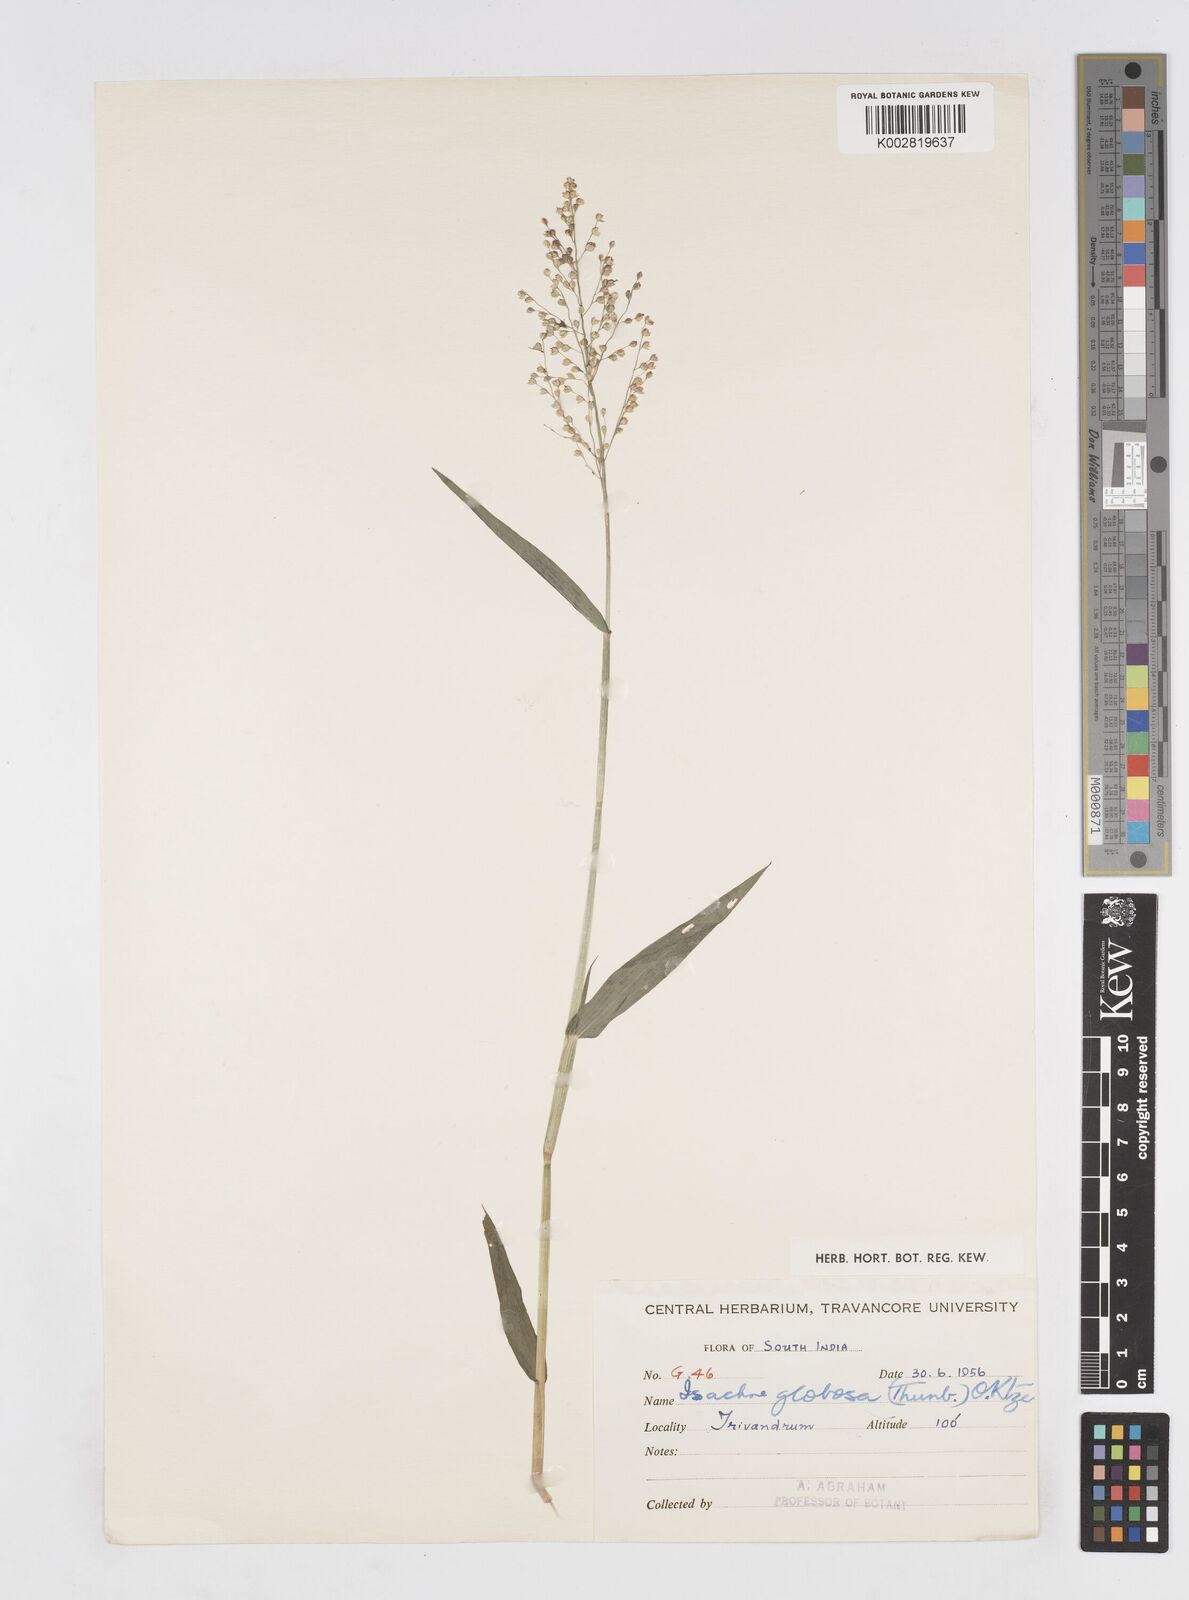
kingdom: Plantae
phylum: Tracheophyta
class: Liliopsida
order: Poales
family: Poaceae
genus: Isachne
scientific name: Isachne globosa
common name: Swamp millet
